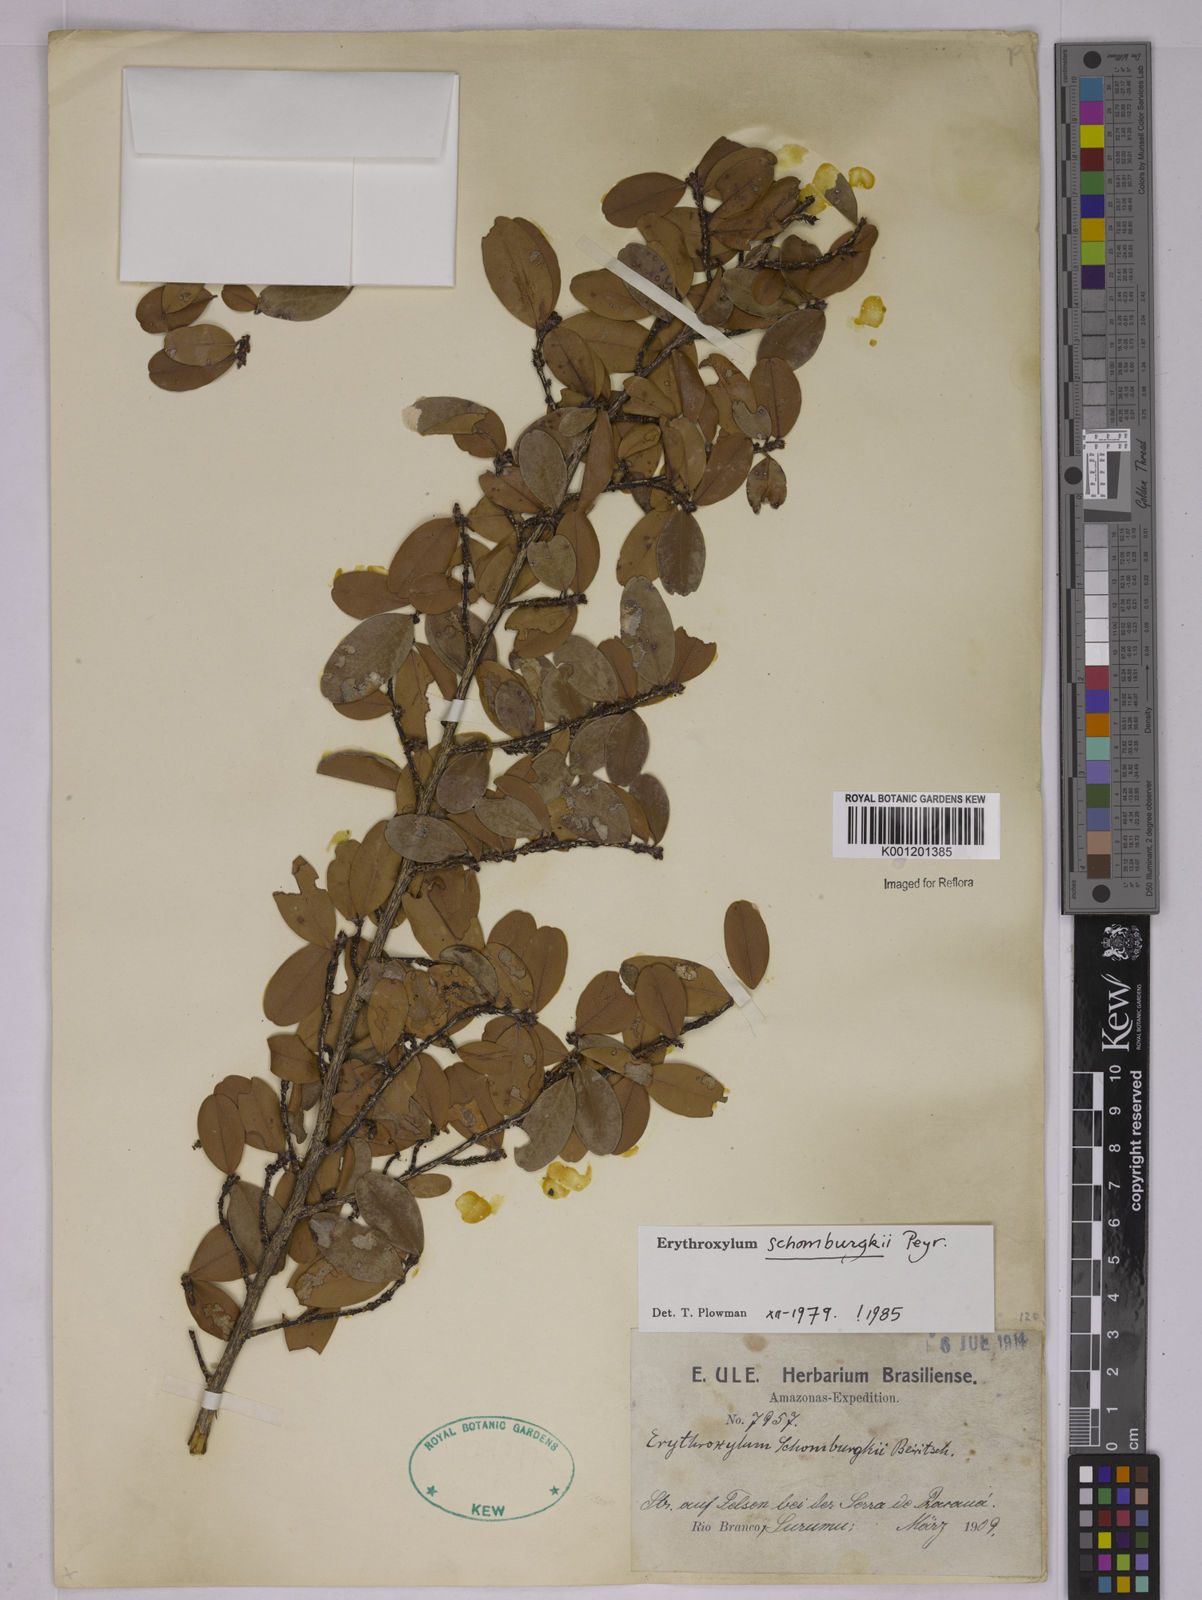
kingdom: Plantae
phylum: Tracheophyta
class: Magnoliopsida
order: Malpighiales
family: Erythroxylaceae
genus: Erythroxylum
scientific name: Erythroxylum schomburgkii
